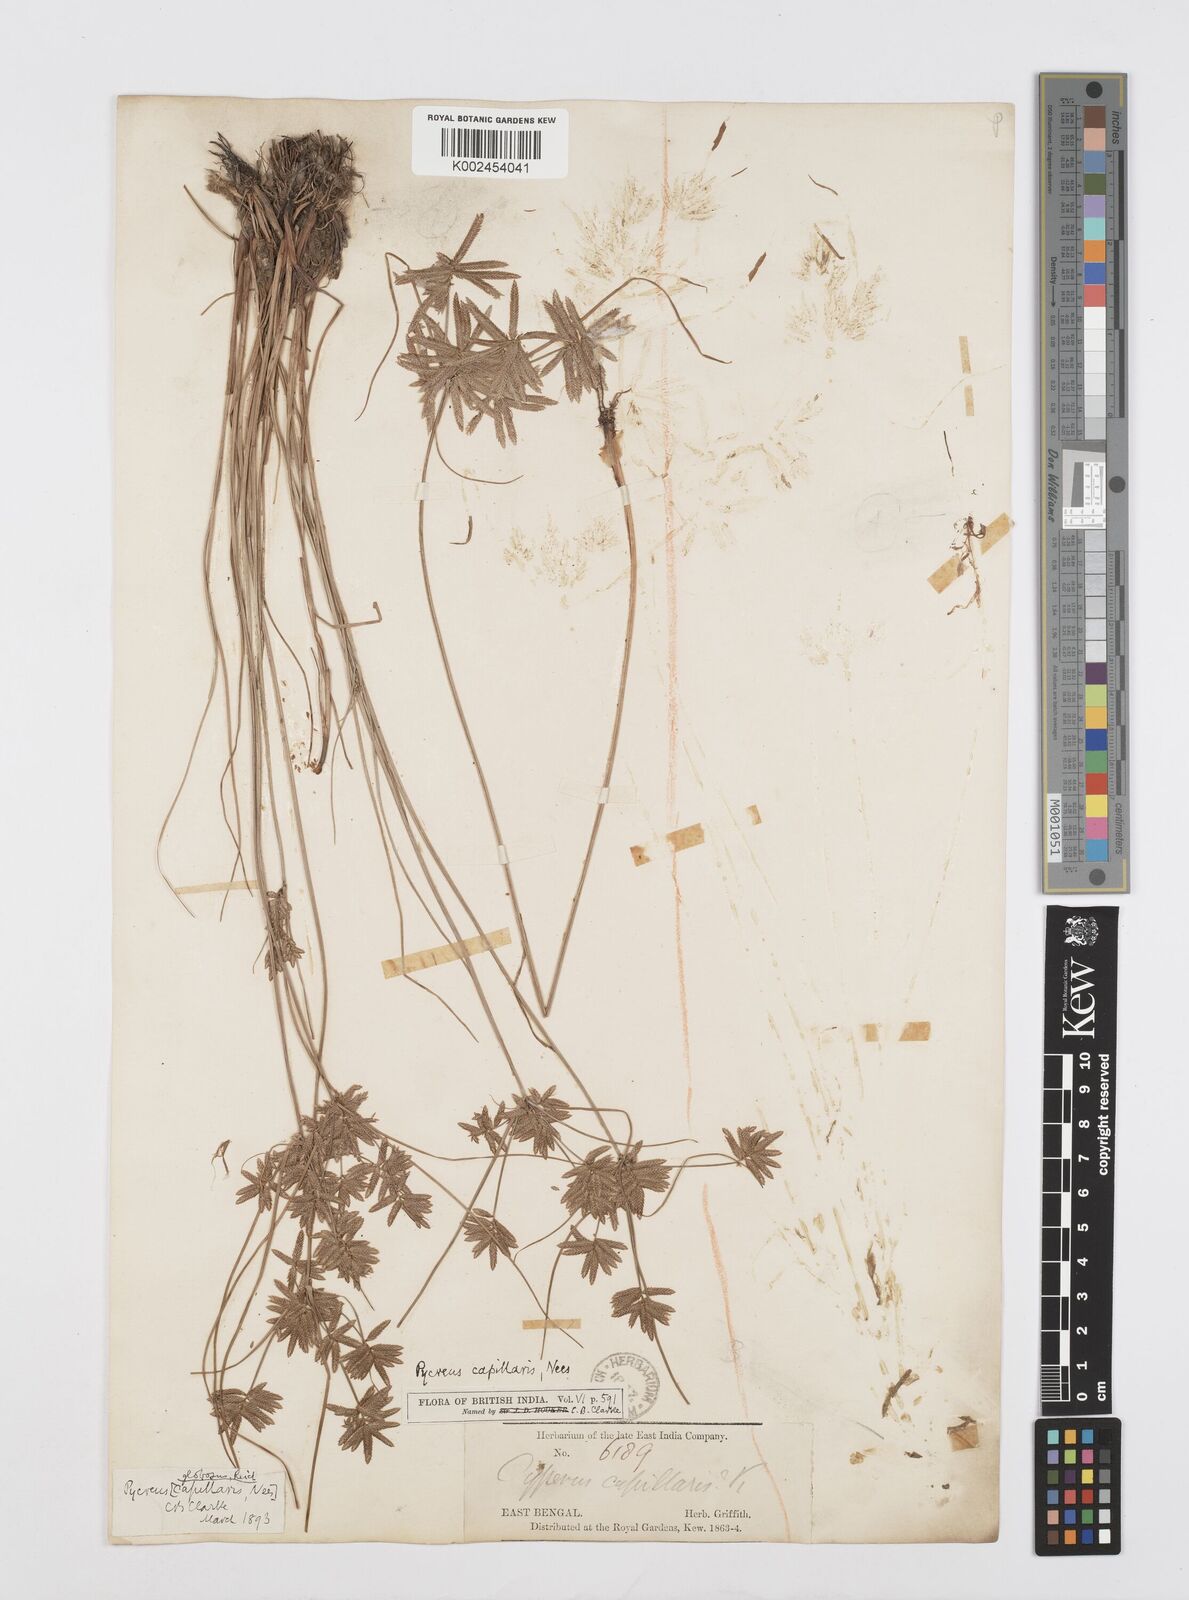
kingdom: Plantae
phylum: Tracheophyta
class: Liliopsida
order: Poales
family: Cyperaceae
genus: Cyperus
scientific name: Cyperus flavidus
